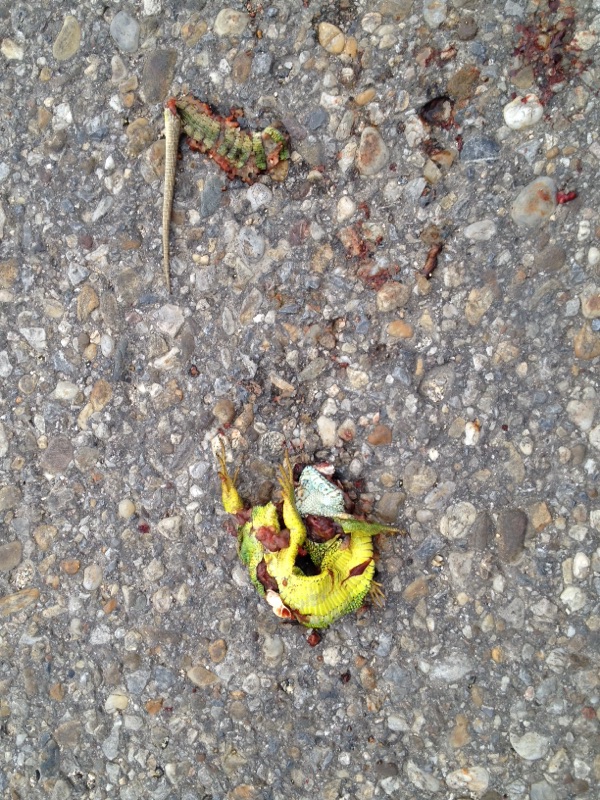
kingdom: Animalia
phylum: Chordata
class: Squamata
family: Lacertidae
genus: Lacerta
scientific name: Lacerta viridis
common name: European green lizard
